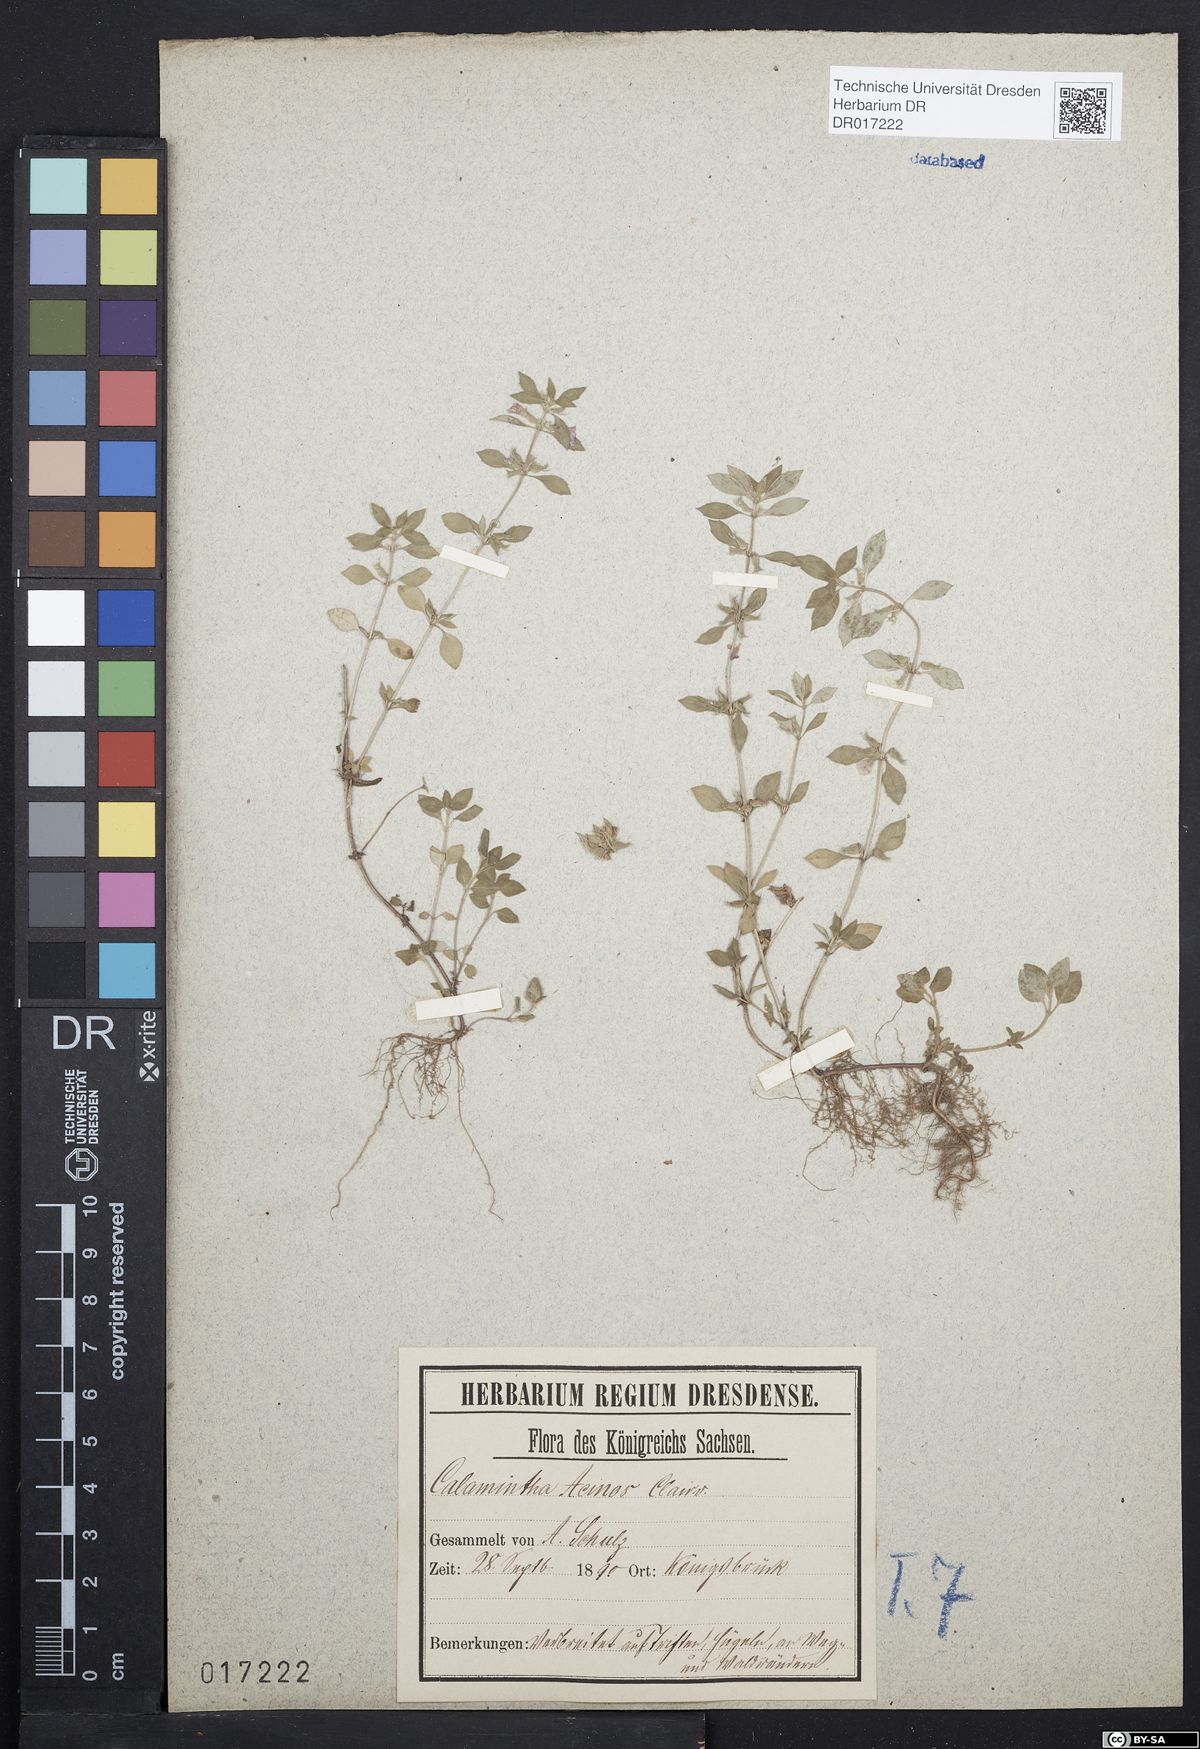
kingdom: Plantae
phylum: Tracheophyta
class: Magnoliopsida
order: Lamiales
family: Lamiaceae
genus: Clinopodium
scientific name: Clinopodium acinos
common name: Basil thyme
